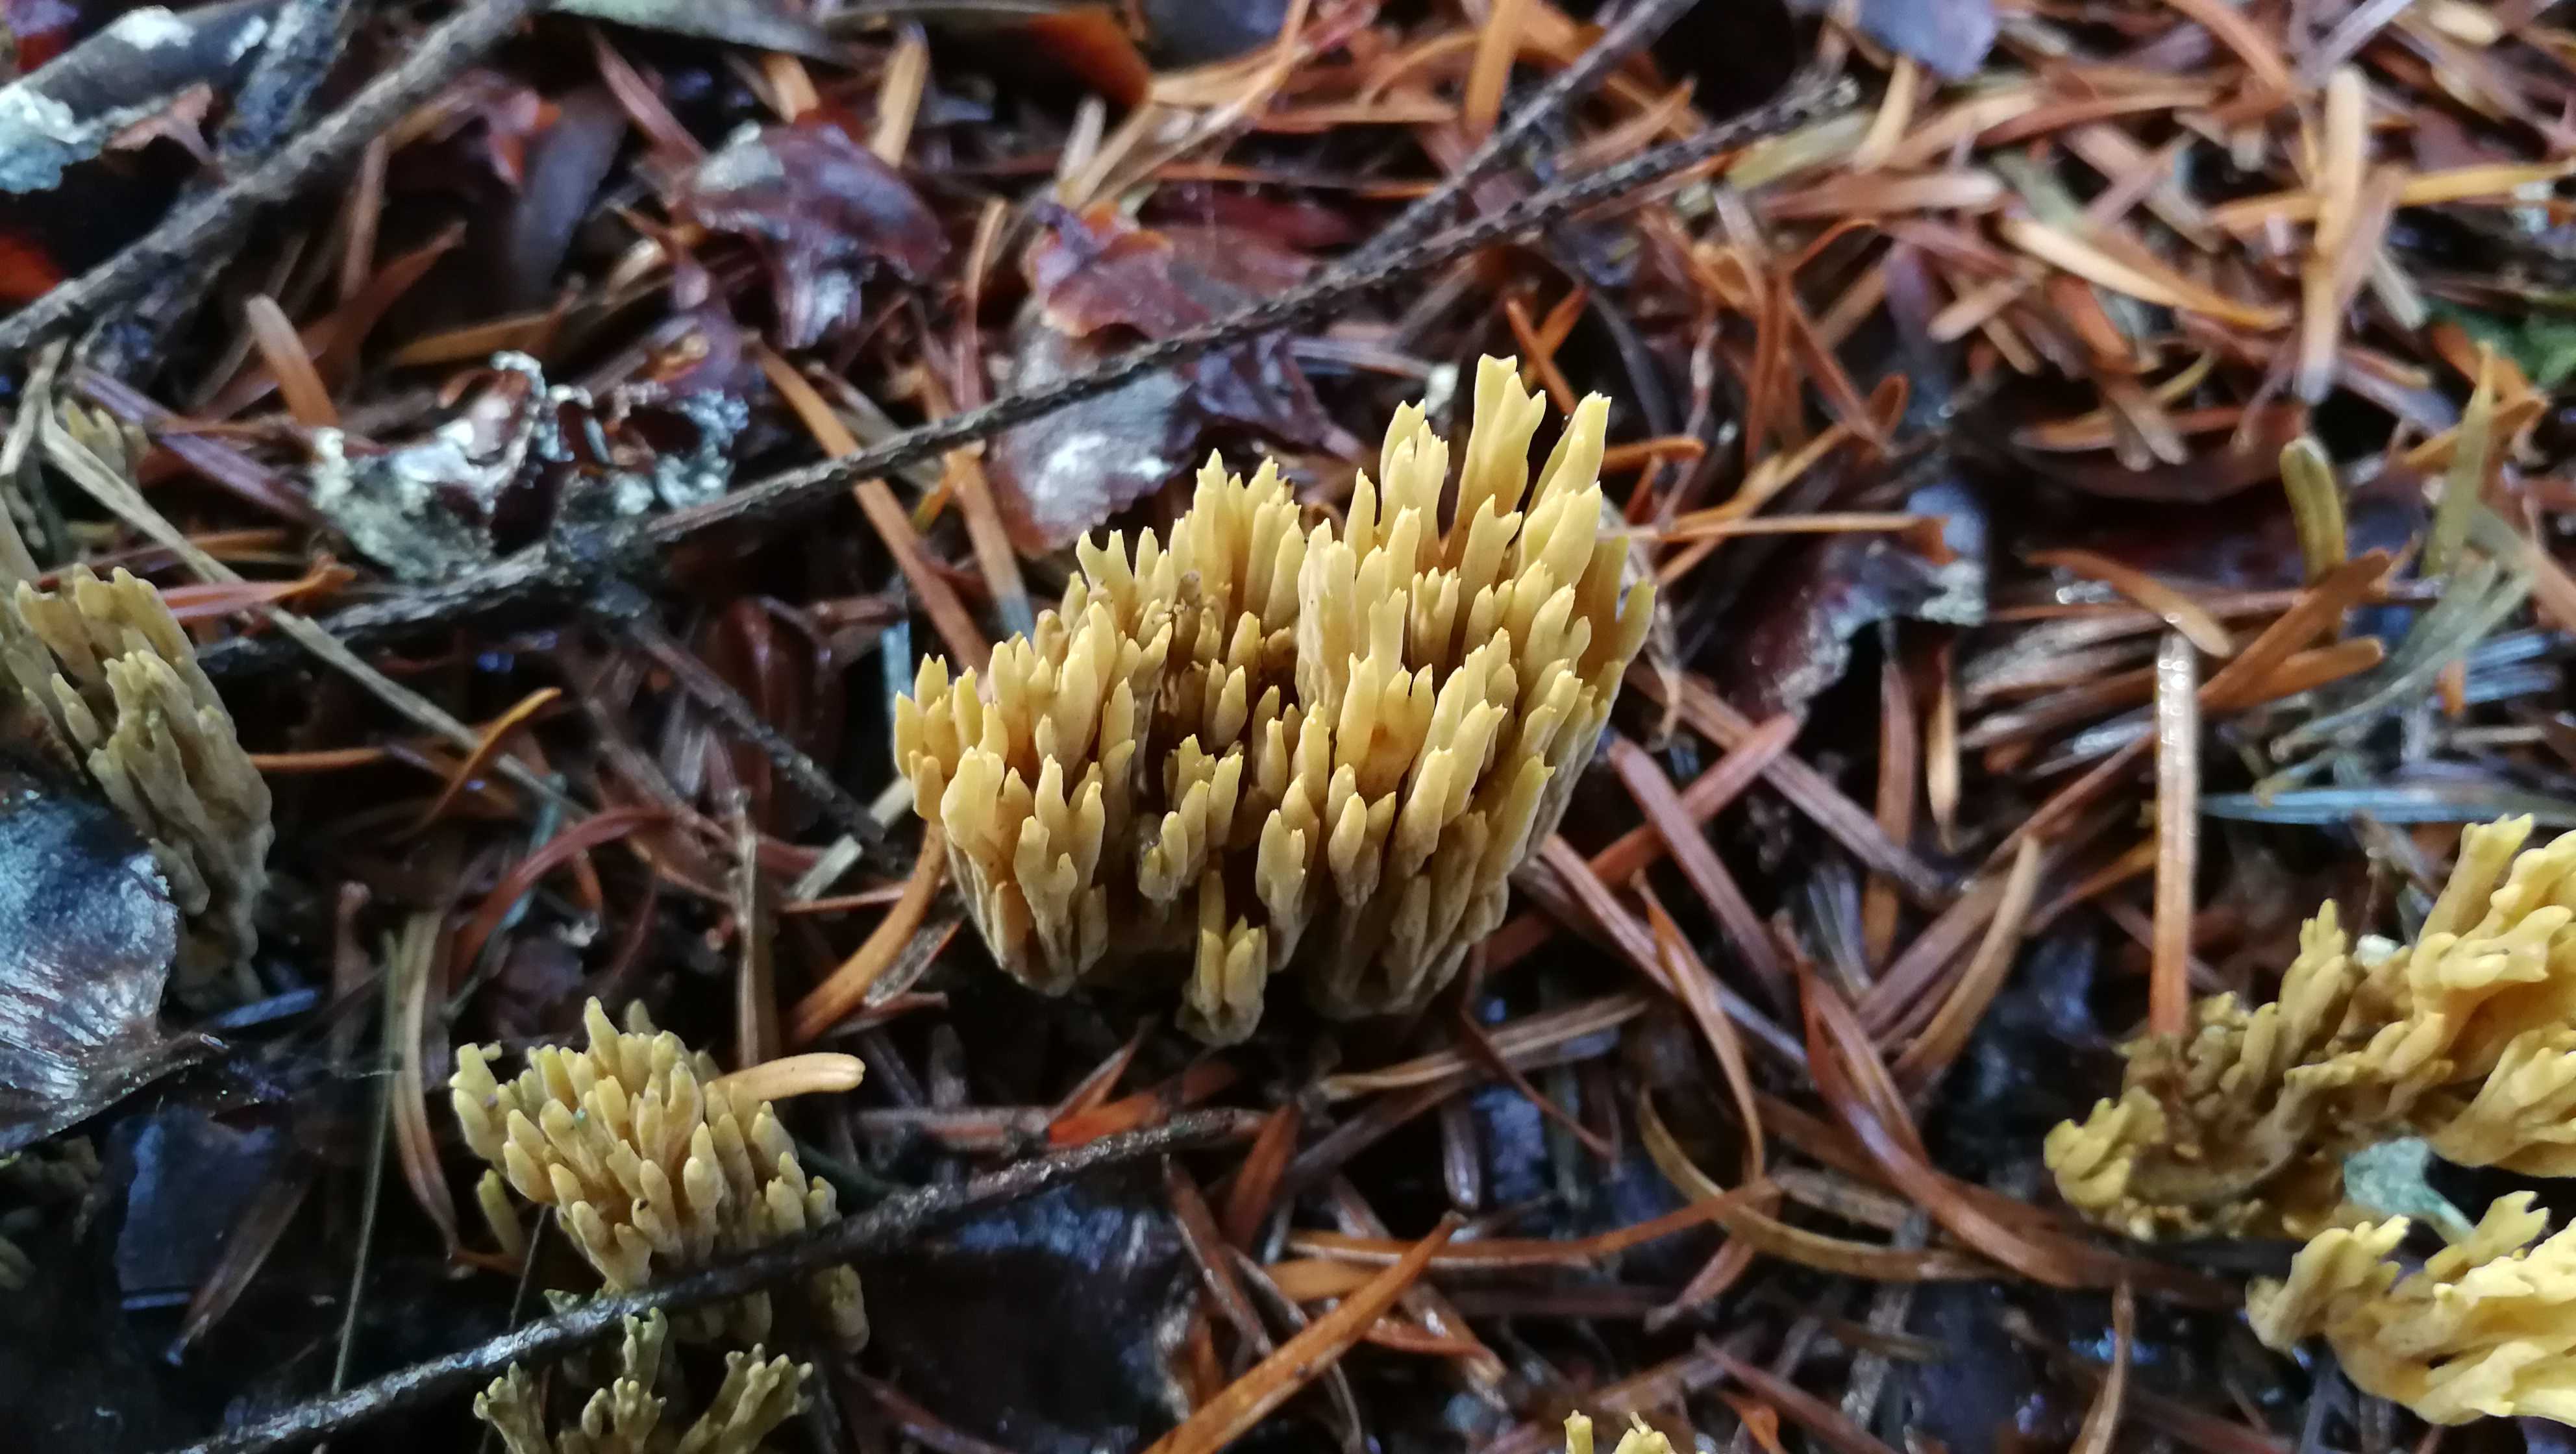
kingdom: Fungi
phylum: Basidiomycota
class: Agaricomycetes
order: Gomphales
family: Gomphaceae
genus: Phaeoclavulina
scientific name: Phaeoclavulina eumorpha
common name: gran-koralsvamp
